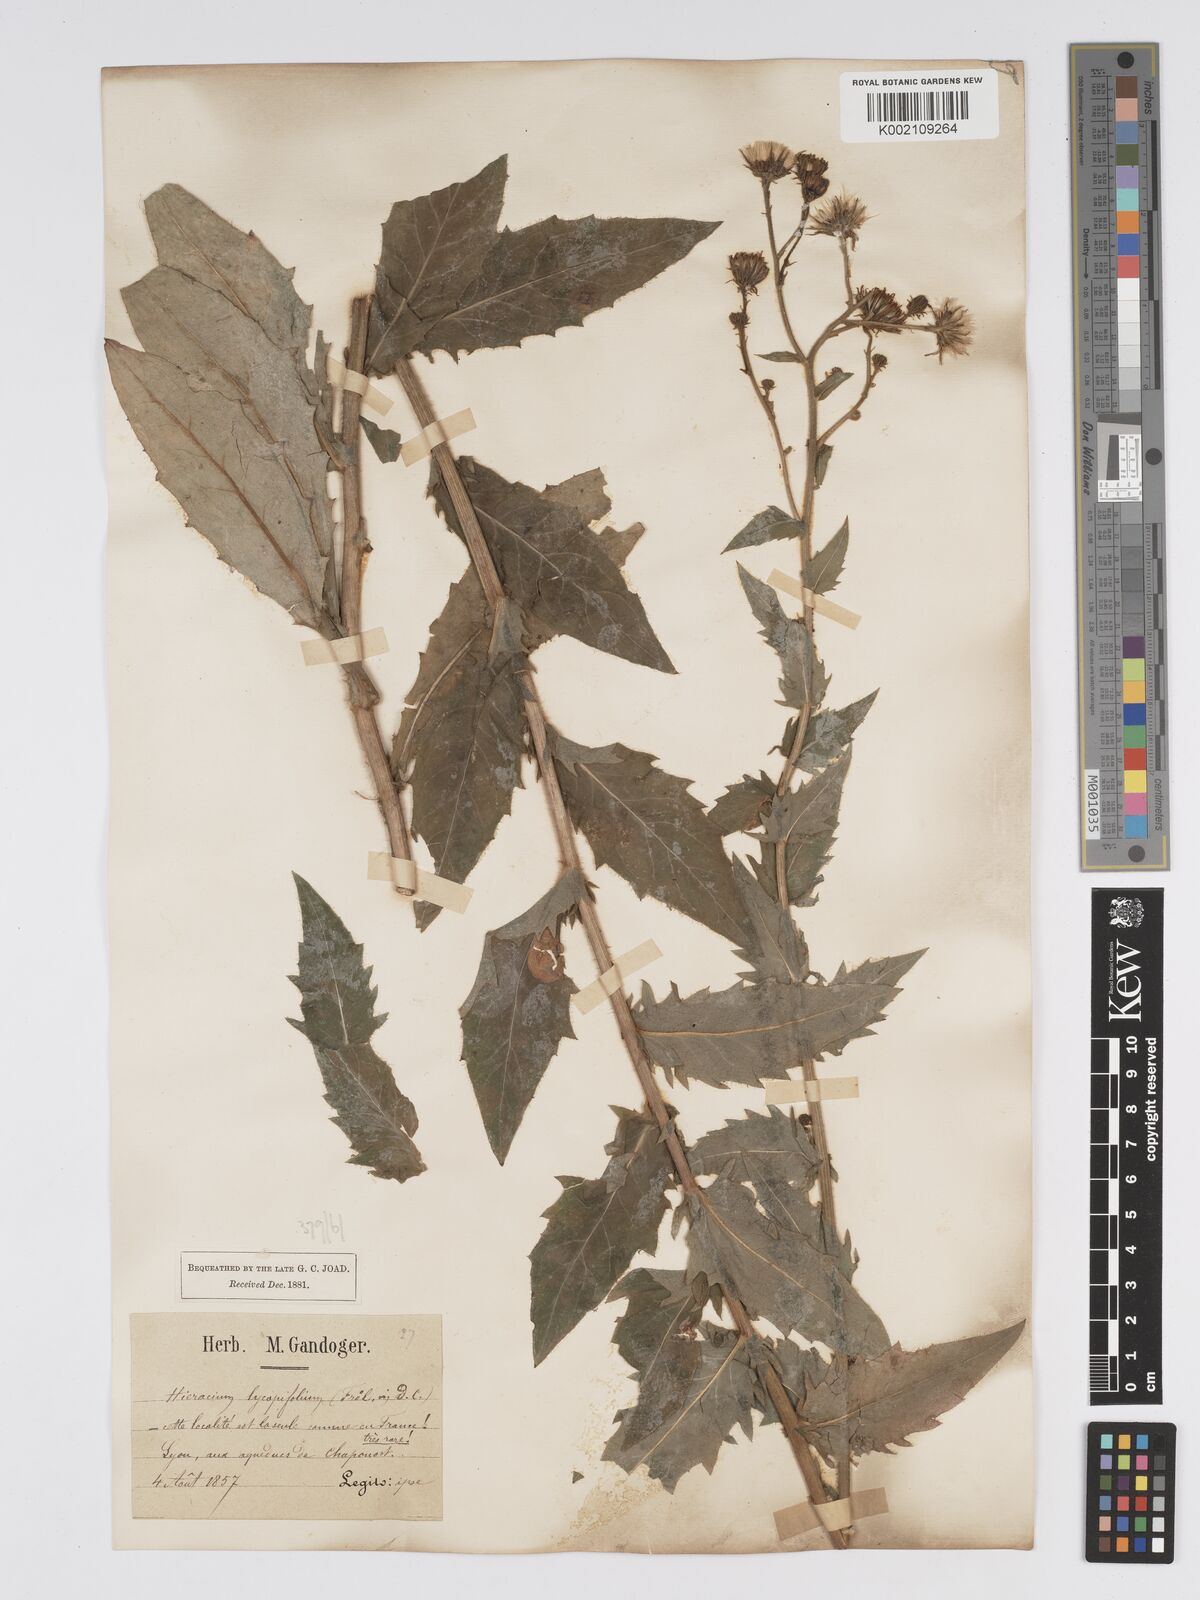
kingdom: Plantae
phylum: Tracheophyta
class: Magnoliopsida
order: Asterales
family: Asteraceae
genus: Hieracium
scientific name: Hieracium lycopifolium
